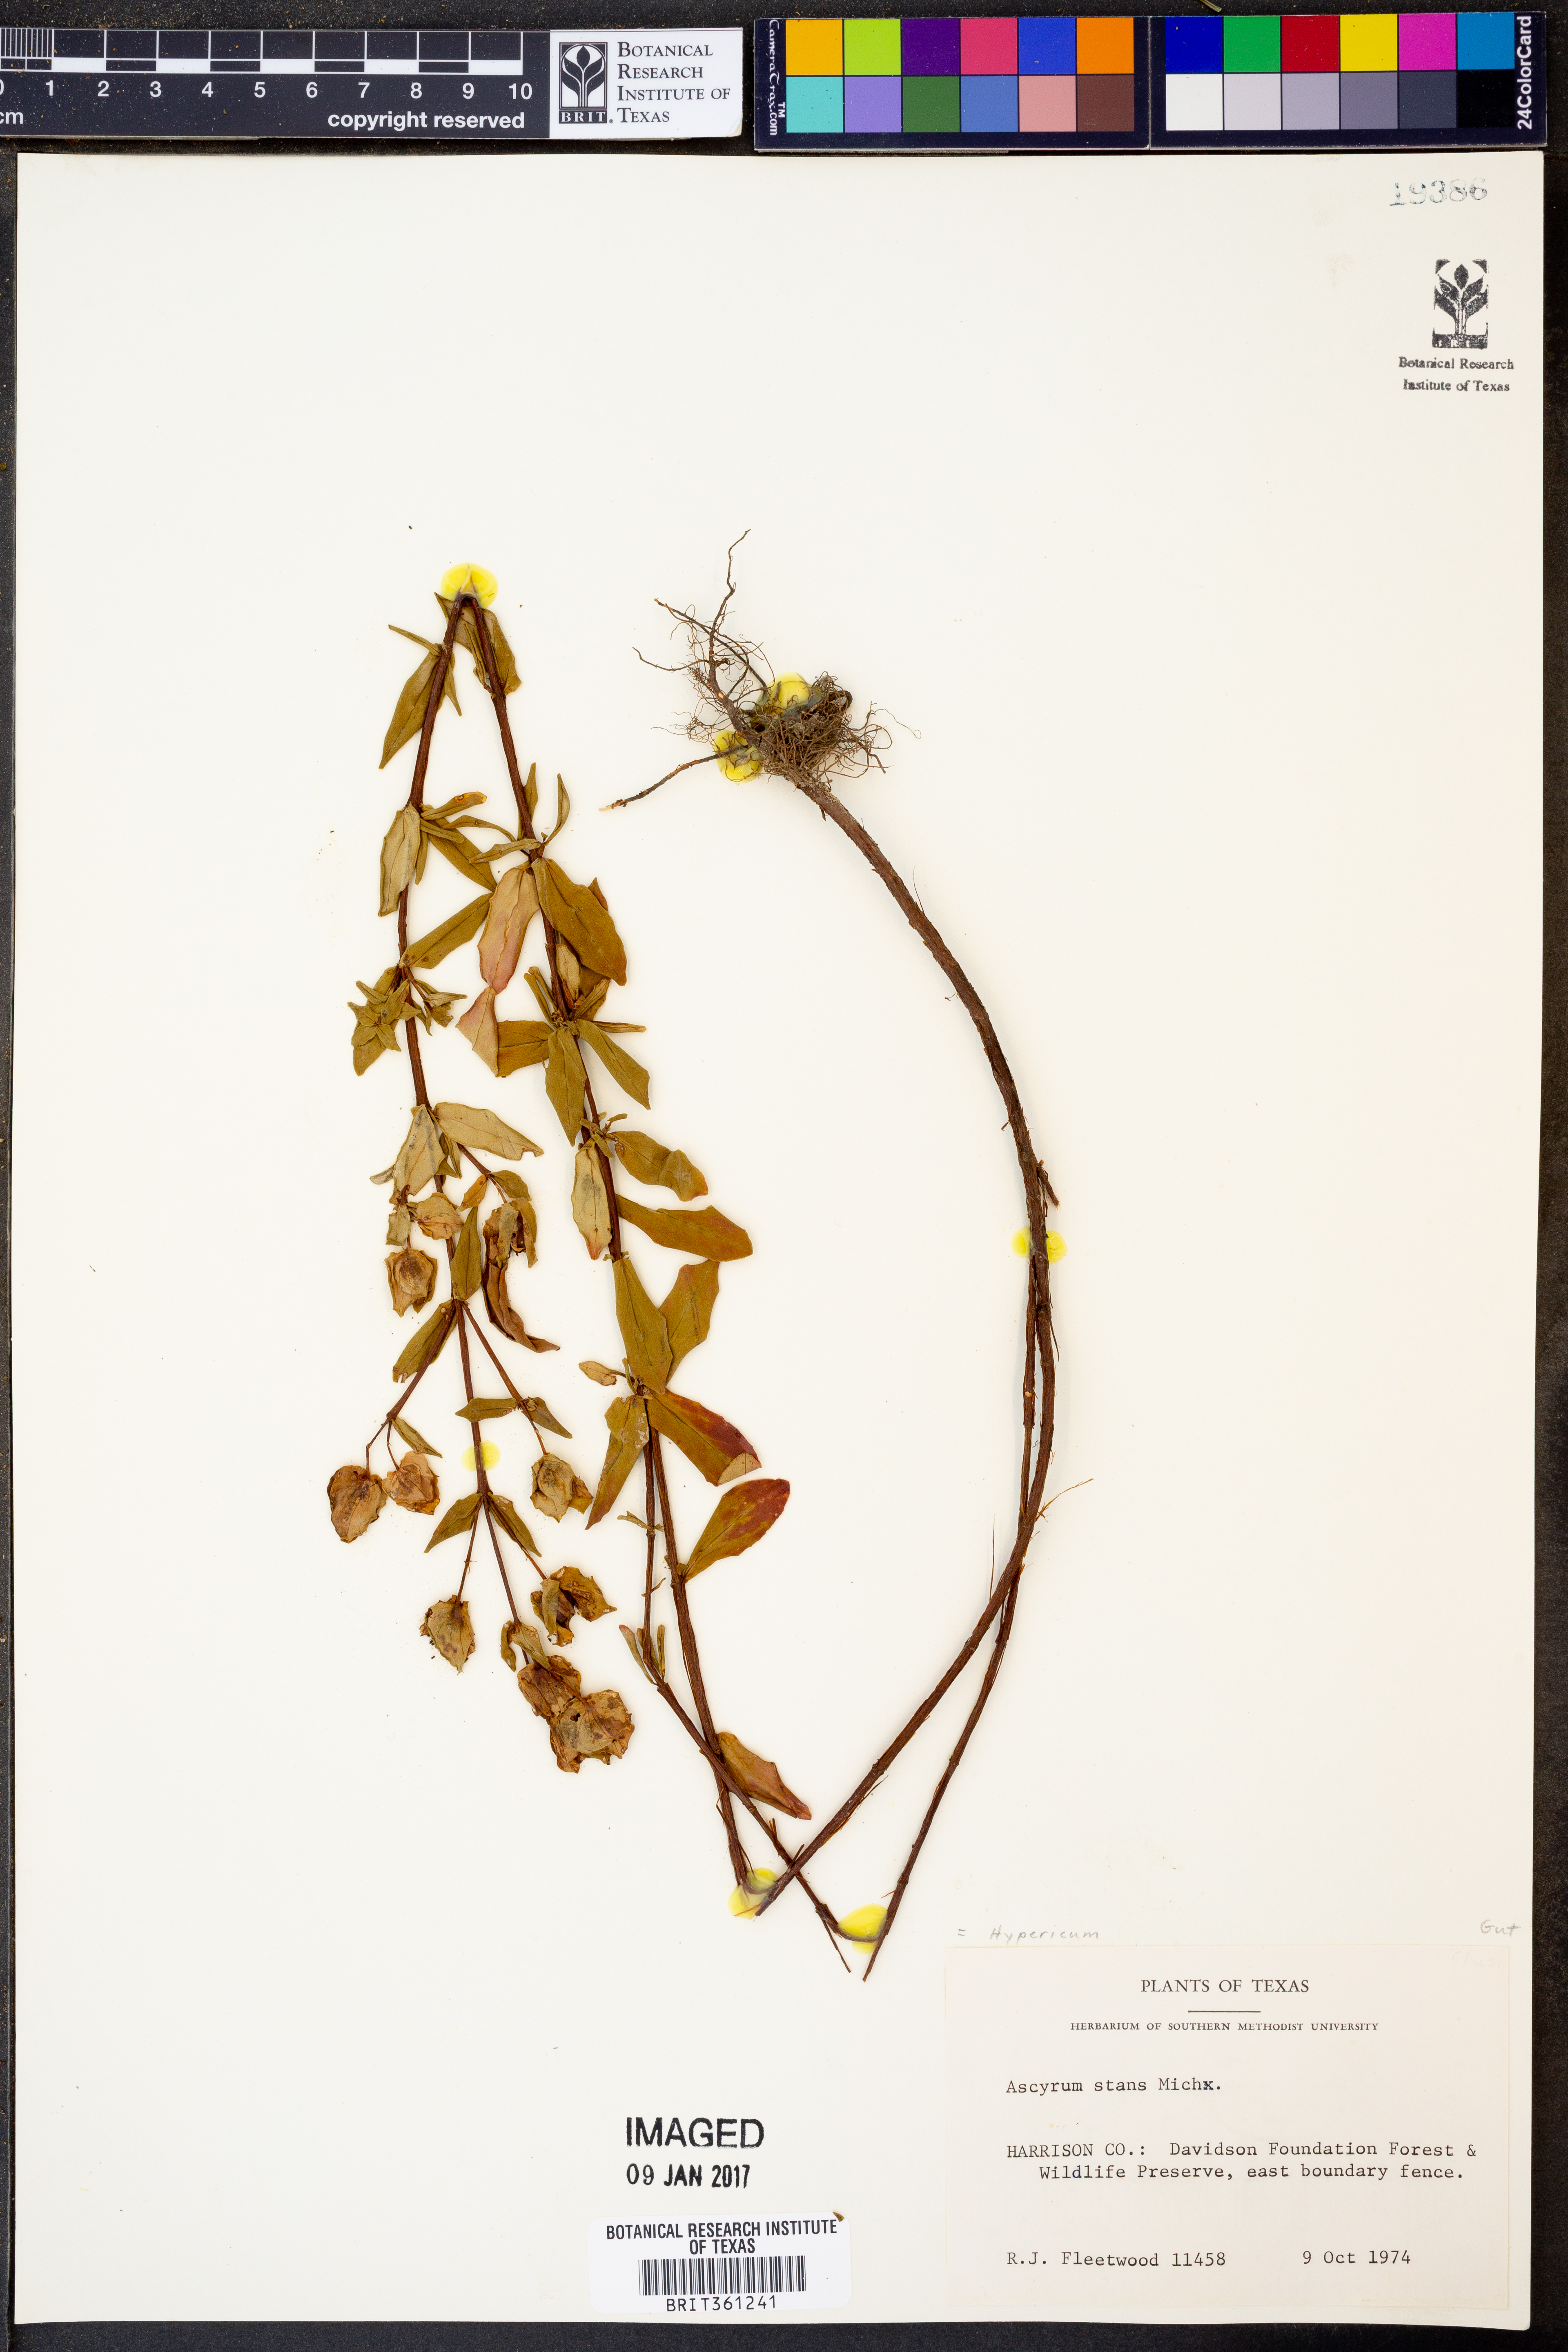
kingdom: Plantae
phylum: Tracheophyta
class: Magnoliopsida
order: Malpighiales
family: Hypericaceae
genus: Hypericum
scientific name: Hypericum crux-andreae
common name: St.-peter's-wort
